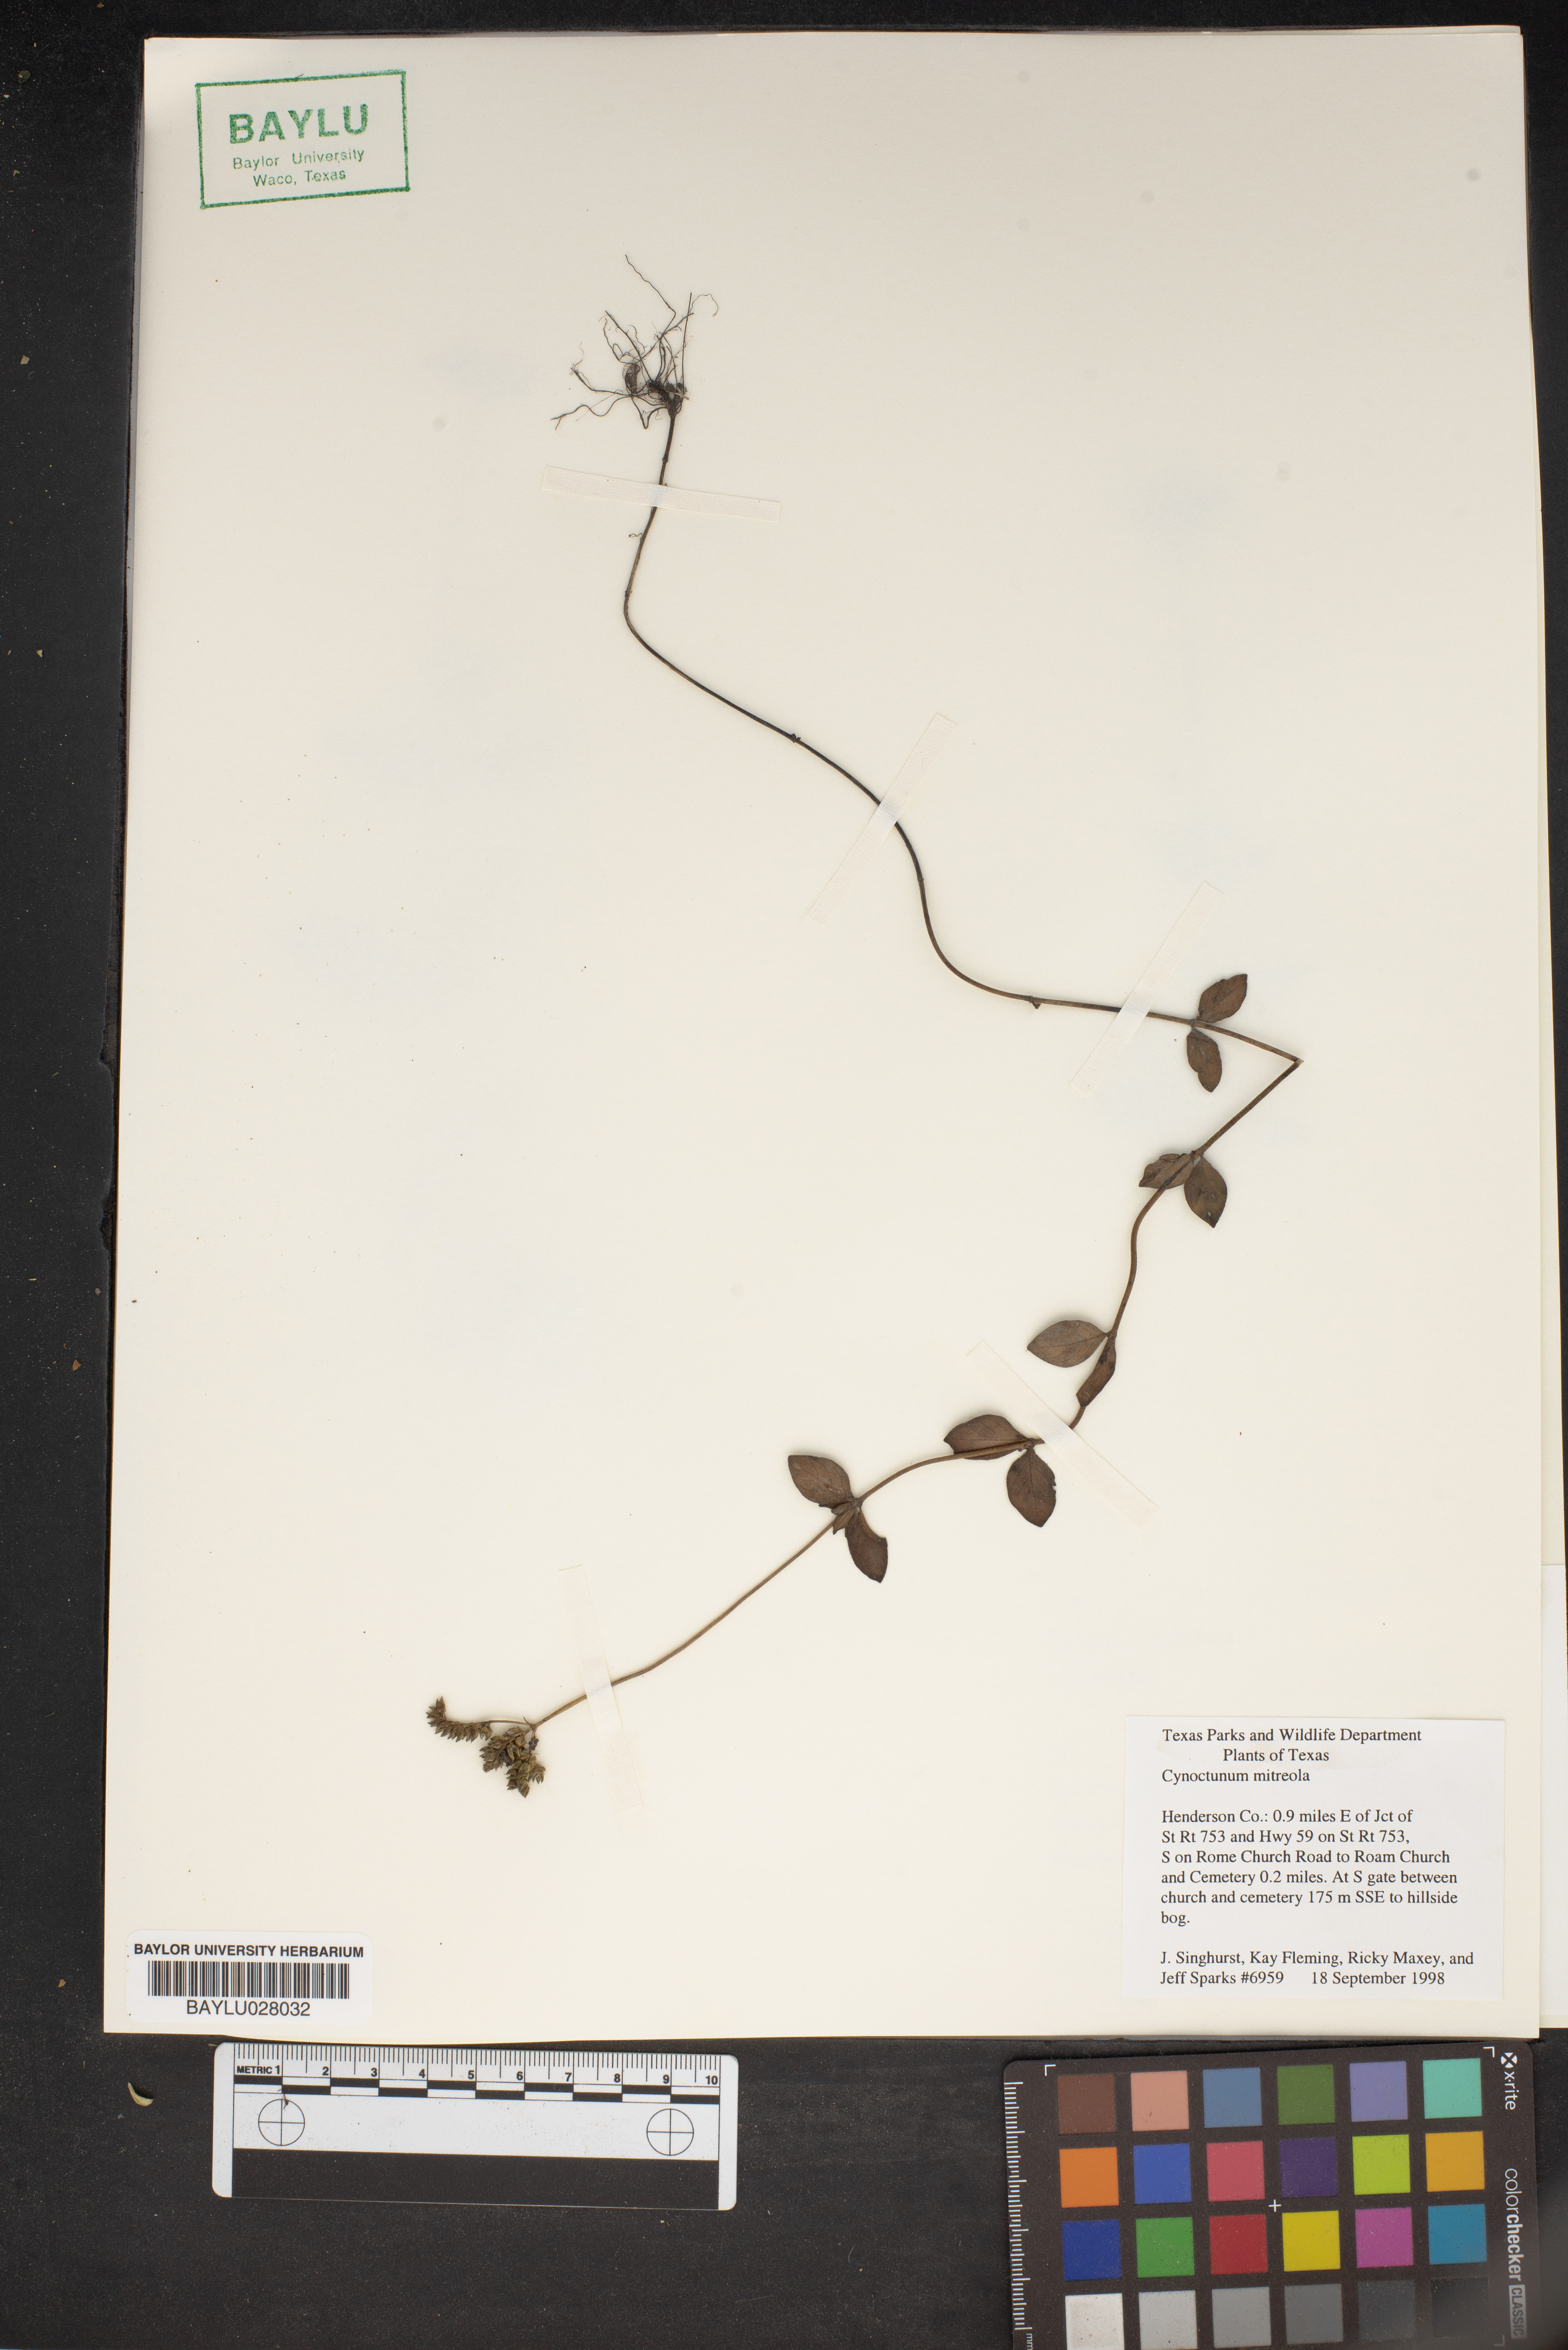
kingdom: Plantae
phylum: Tracheophyta
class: Magnoliopsida
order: Gentianales
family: Loganiaceae
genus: Mitreola
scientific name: Mitreola petiolata
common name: Lax hornpod
